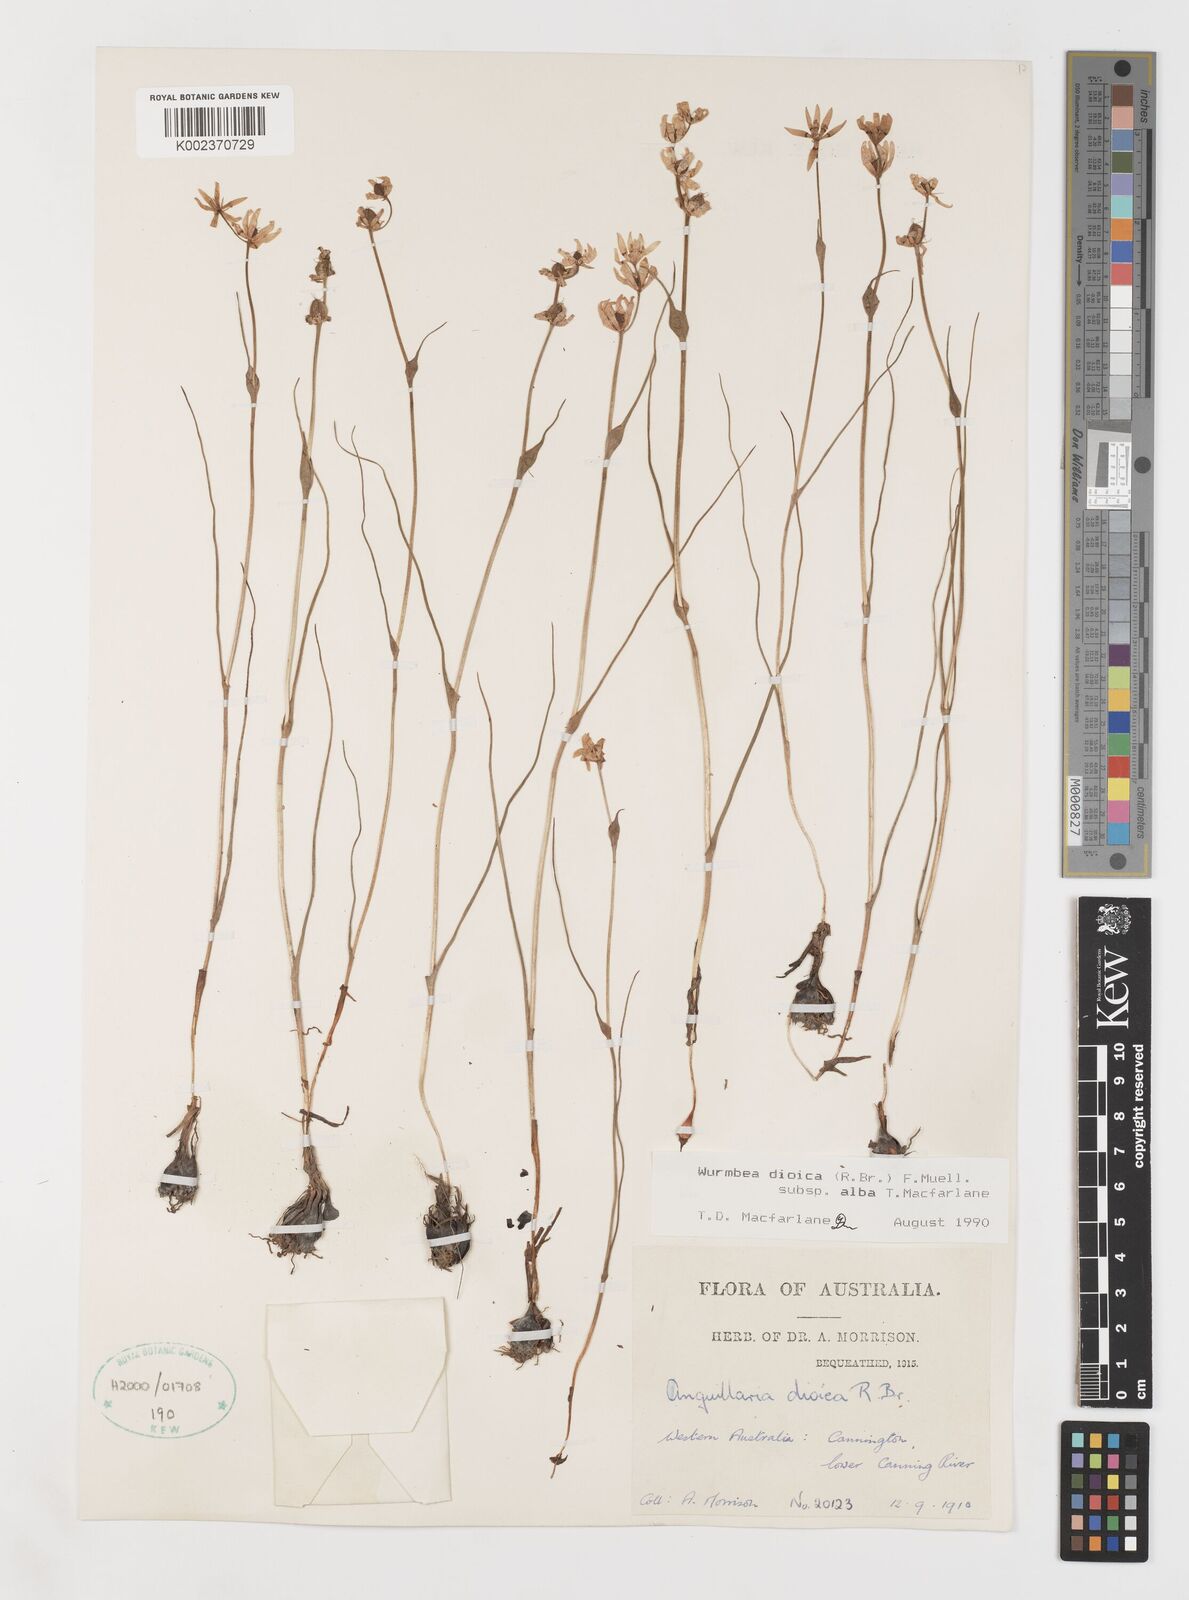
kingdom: Plantae
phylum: Tracheophyta
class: Liliopsida
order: Liliales
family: Colchicaceae
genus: Wurmbea
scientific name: Wurmbea dioica
